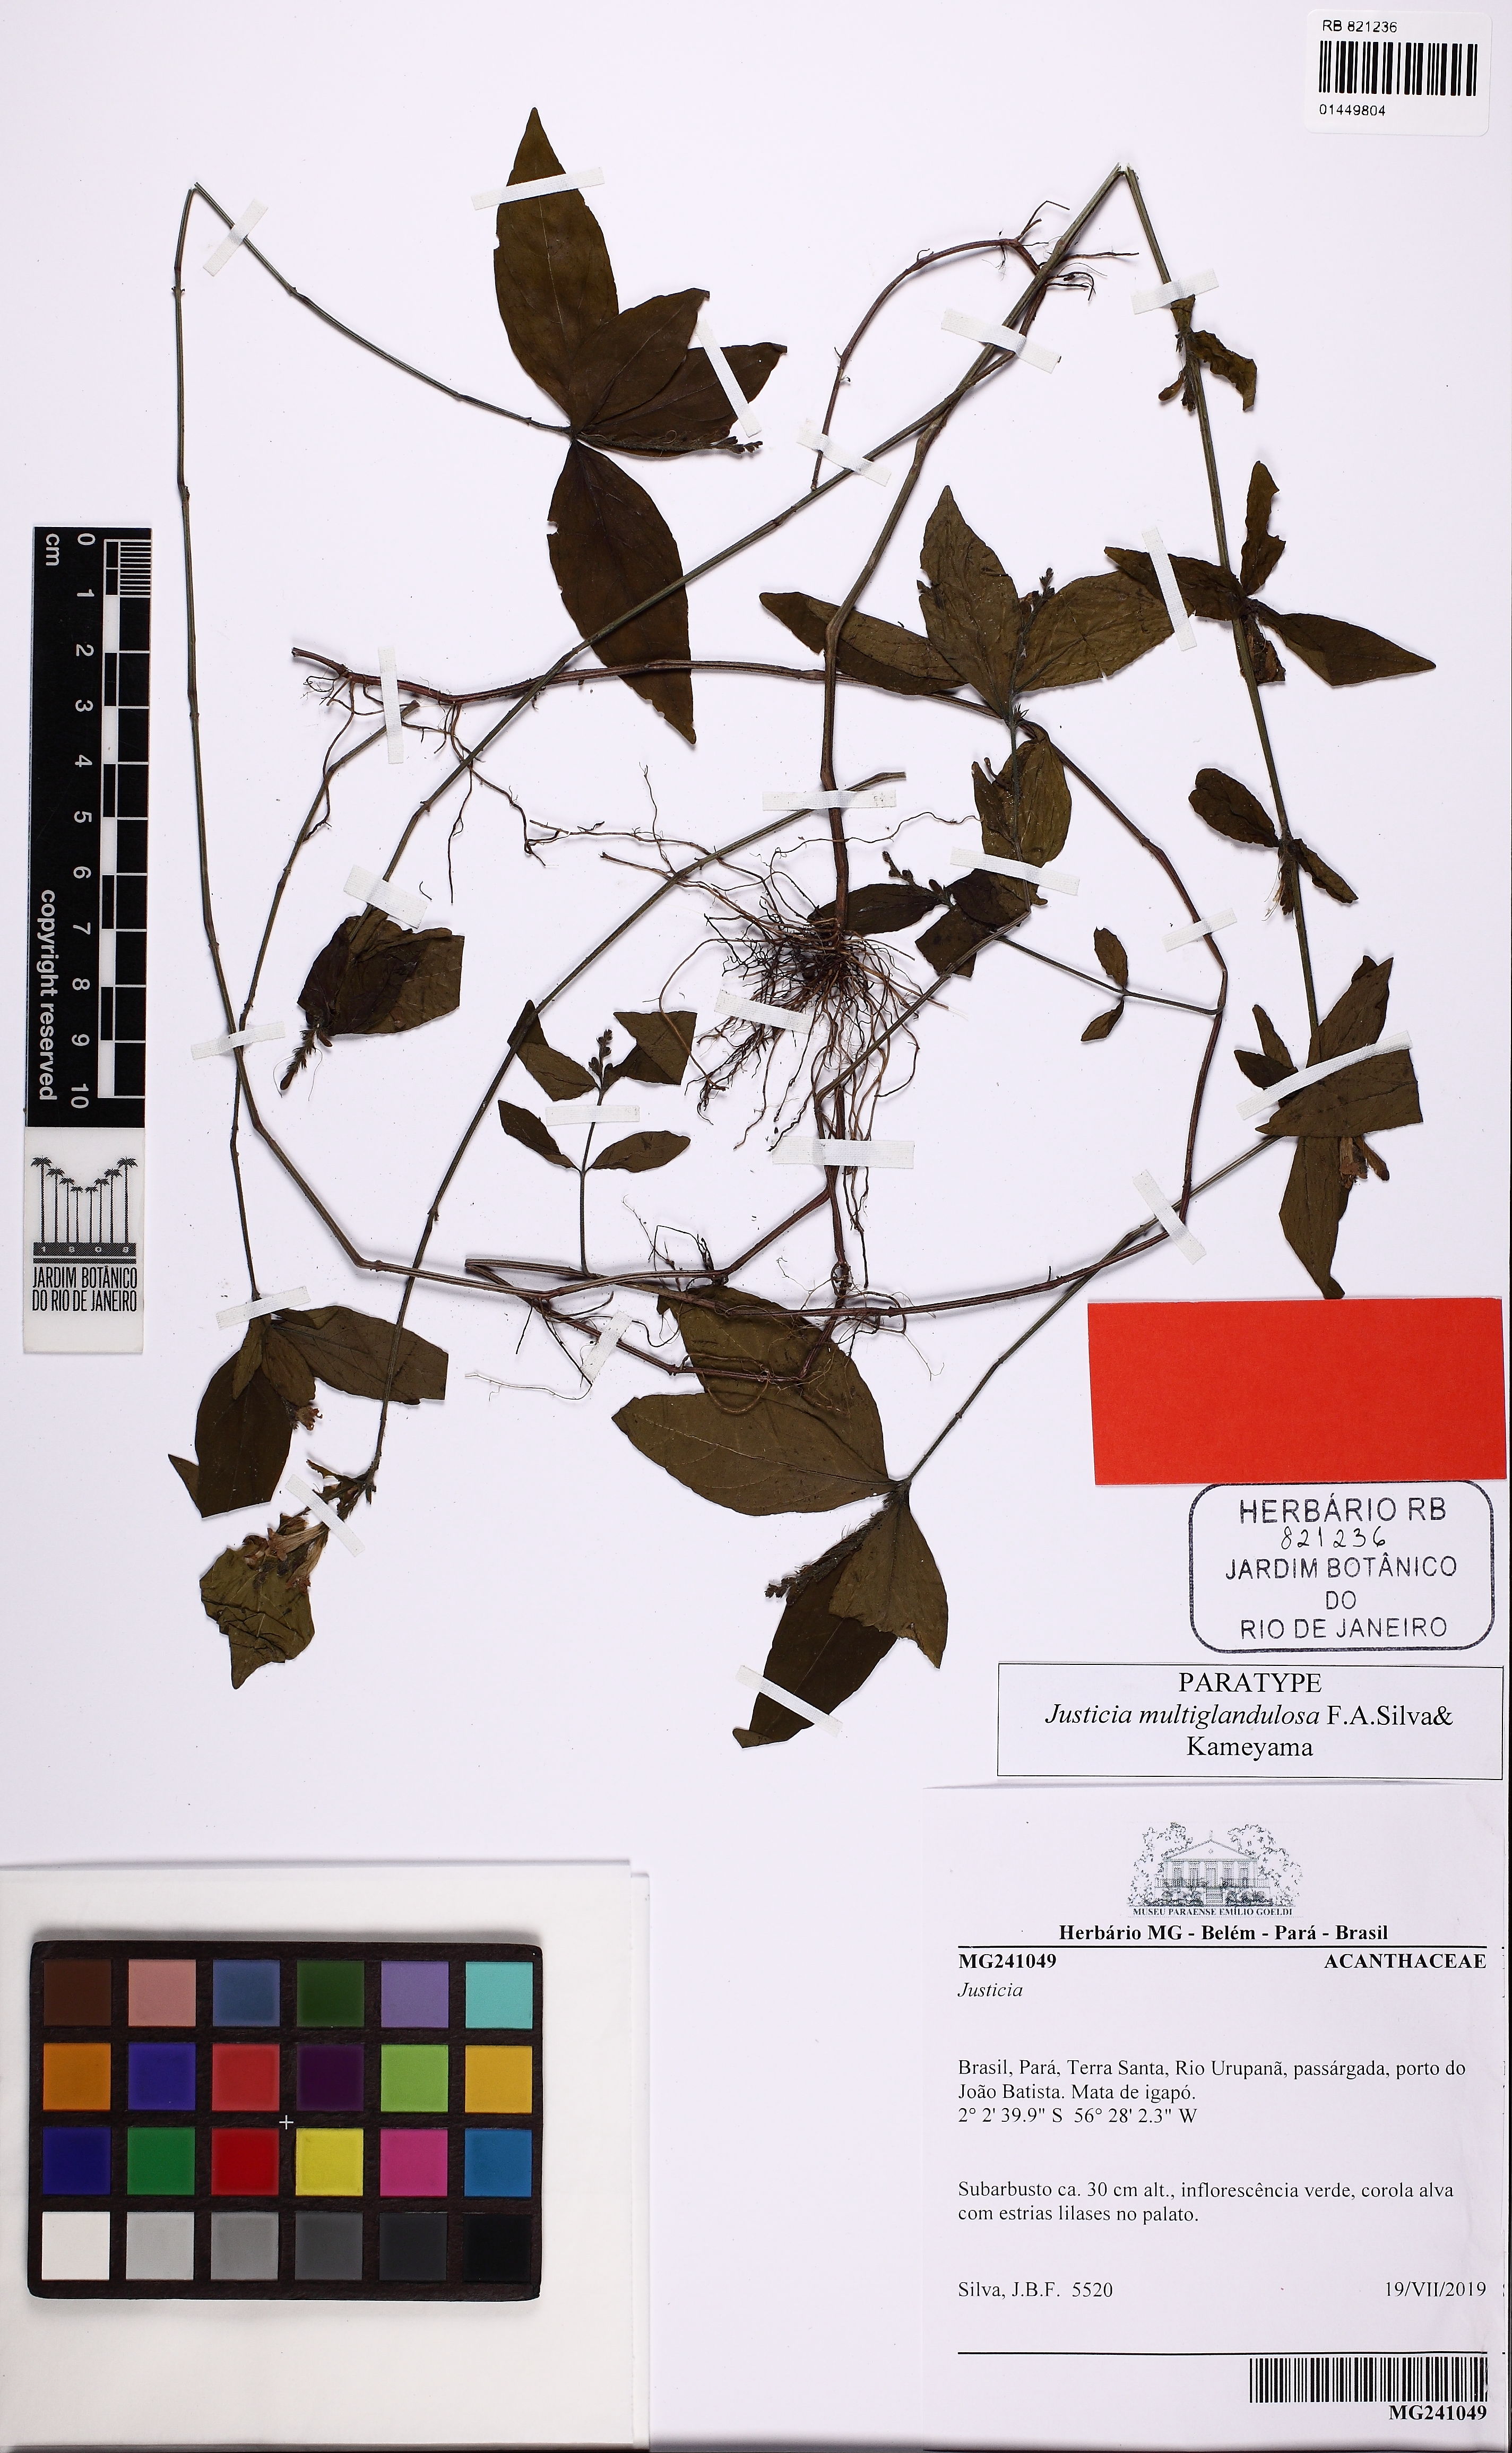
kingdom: Plantae
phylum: Tracheophyta
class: Magnoliopsida
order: Lamiales
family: Acanthaceae
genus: Justicia
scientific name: Justicia multiglandulosa
